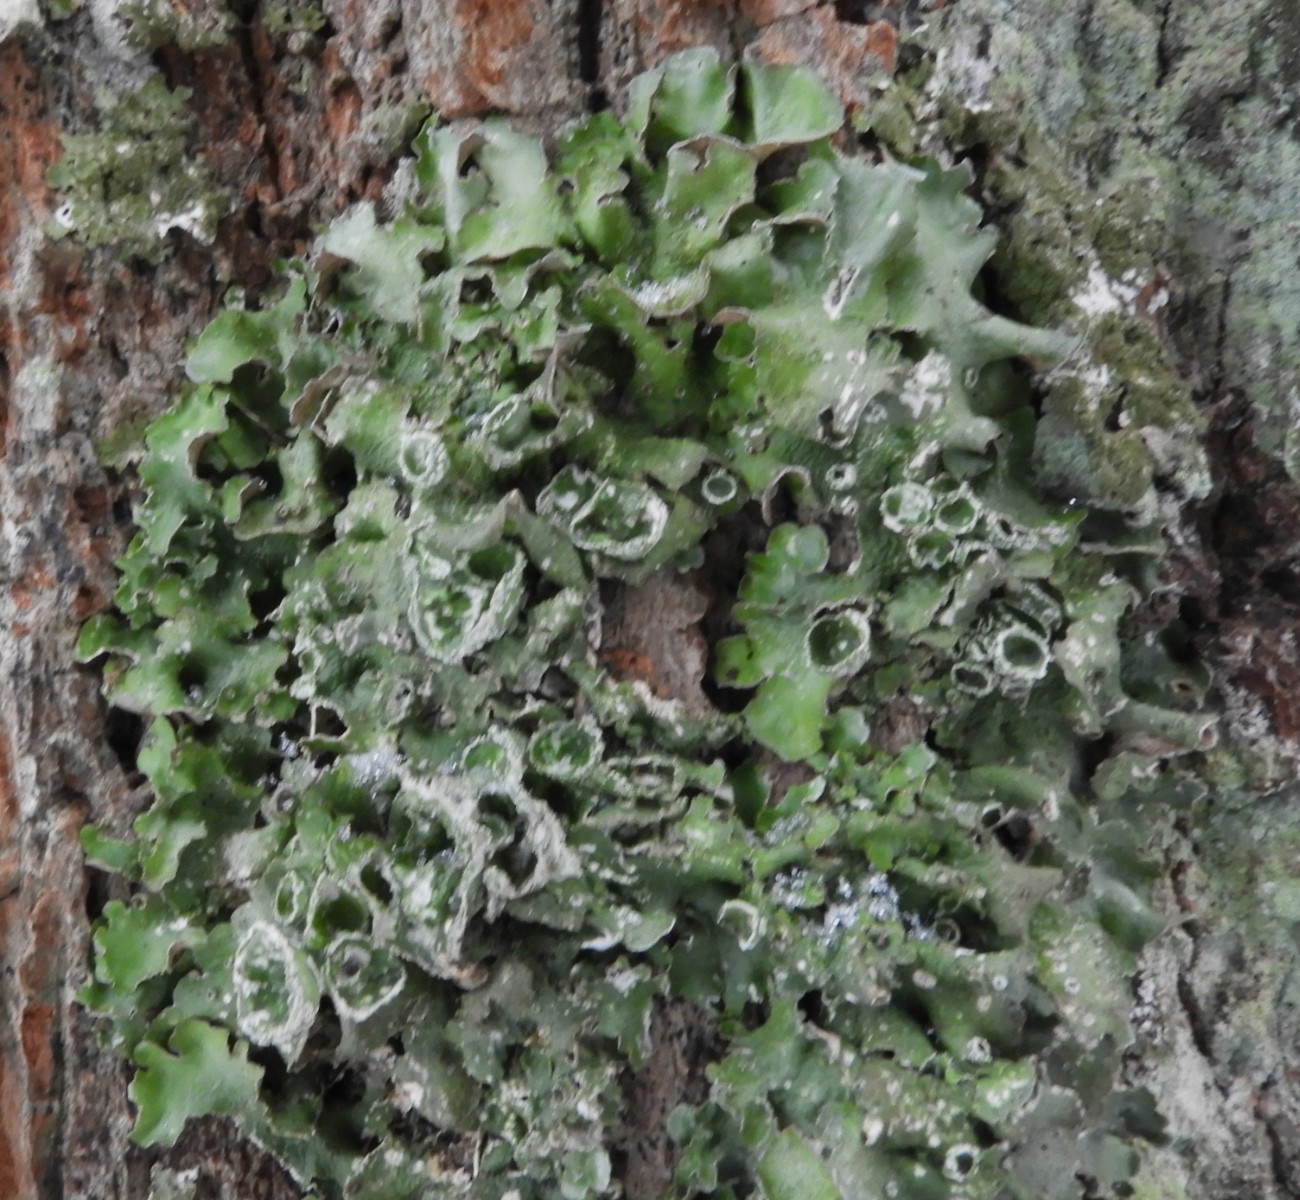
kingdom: Fungi
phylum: Ascomycota
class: Lecanoromycetes
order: Lecanorales
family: Parmeliaceae
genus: Pleurosticta
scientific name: Pleurosticta acetabulum
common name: stor skållav
